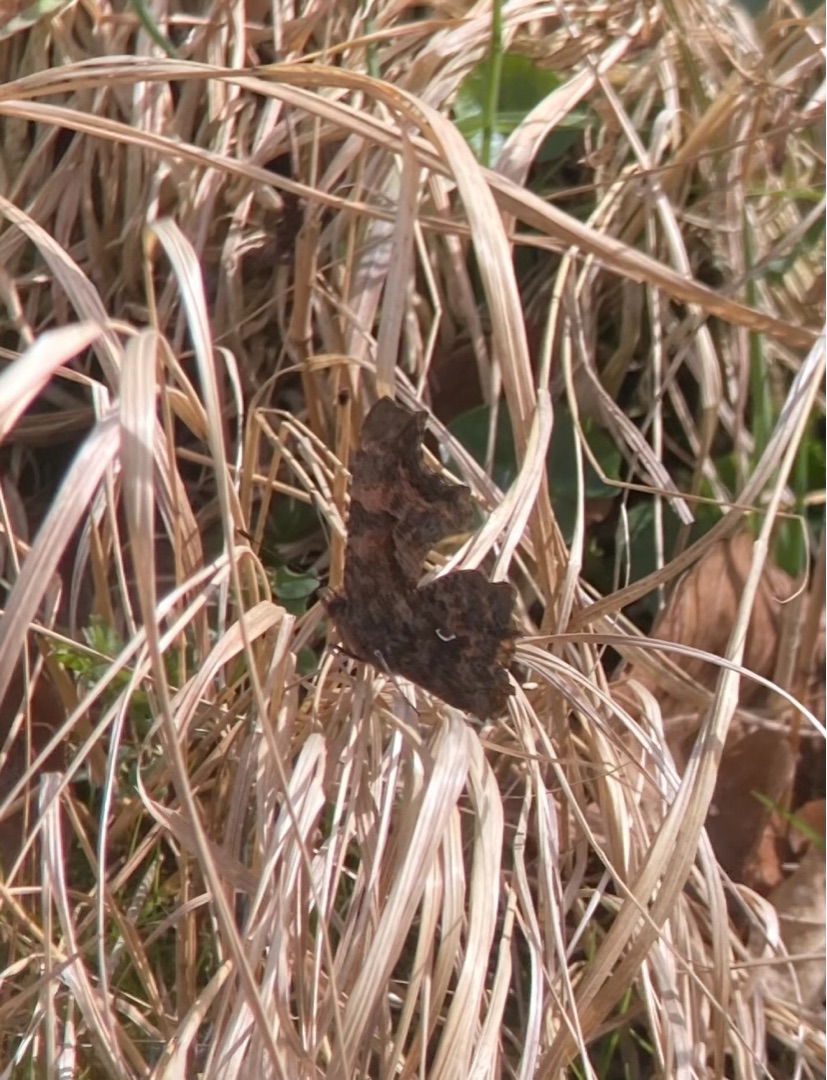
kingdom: Animalia
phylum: Arthropoda
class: Insecta
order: Lepidoptera
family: Nymphalidae
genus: Polygonia
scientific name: Polygonia c-album
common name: Det hvide C
